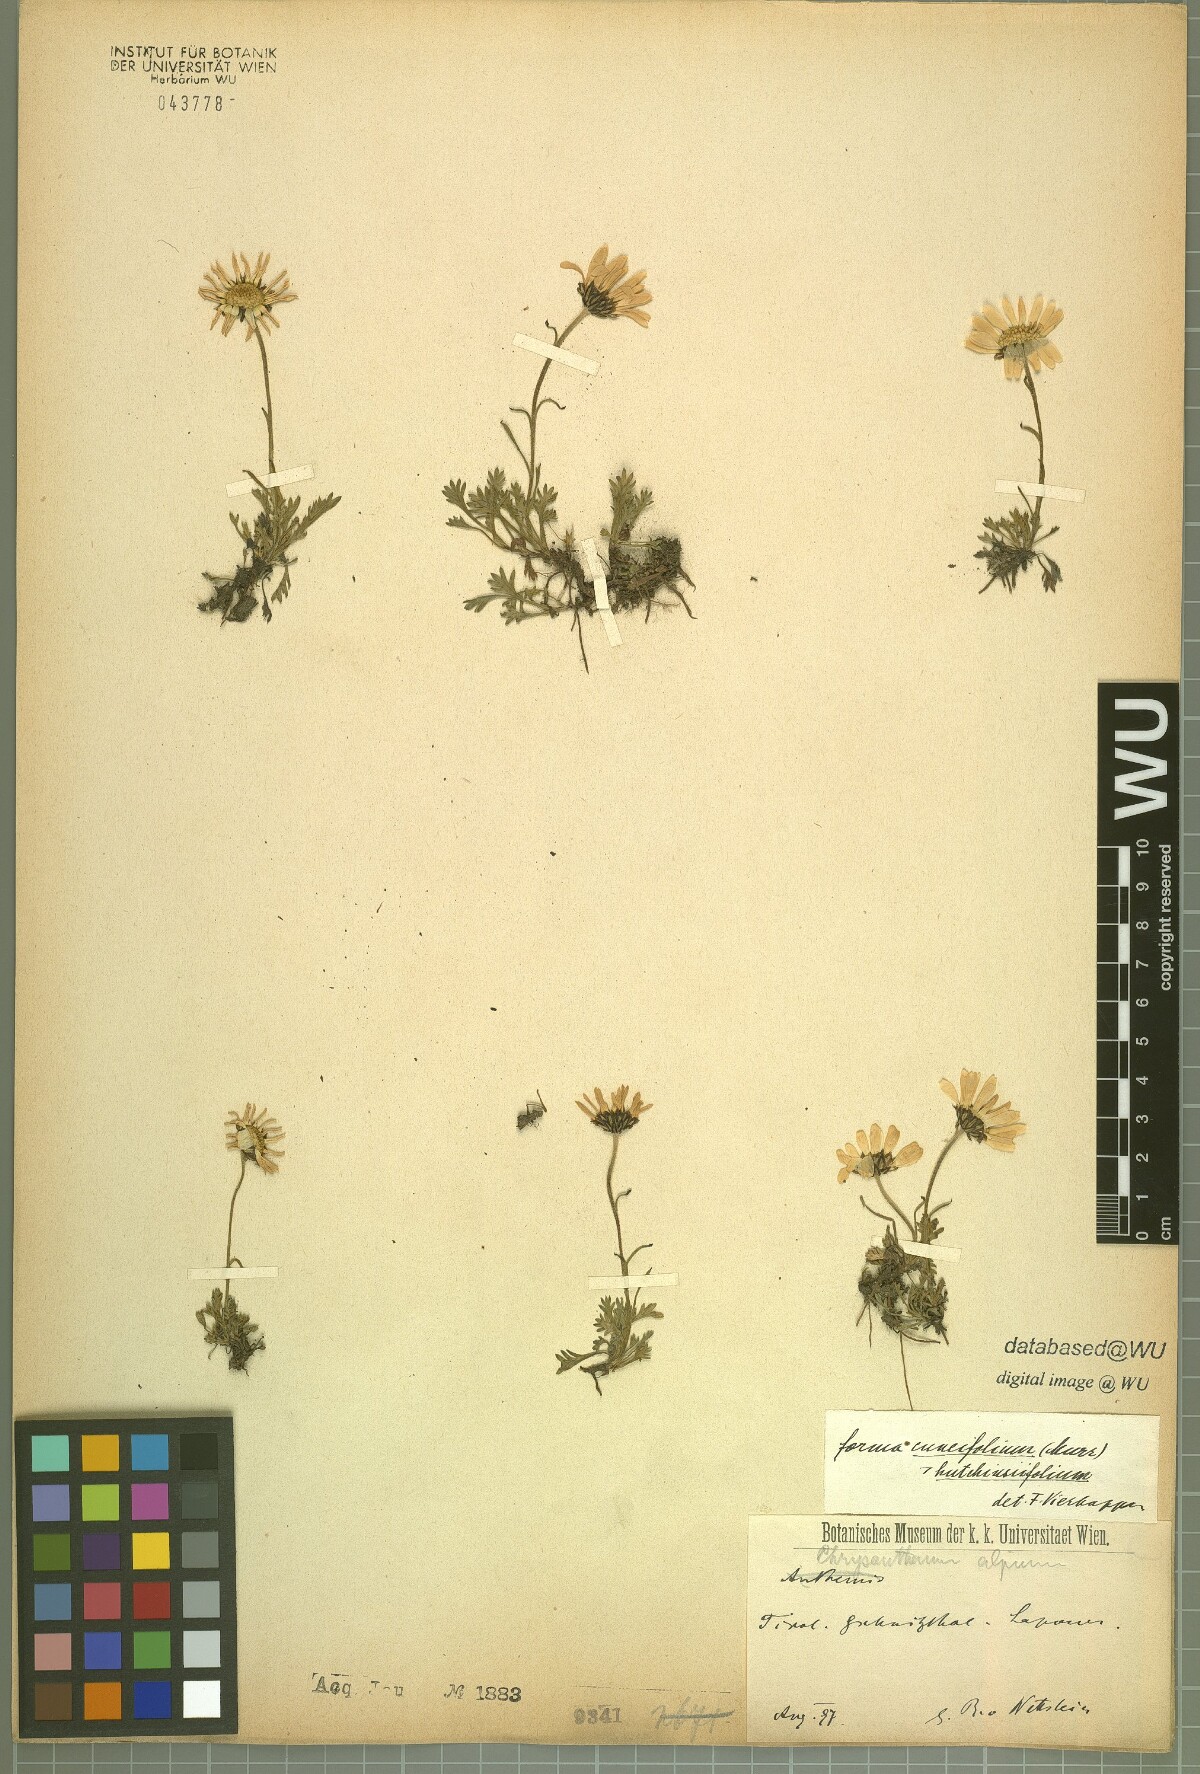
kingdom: Plantae
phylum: Tracheophyta
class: Magnoliopsida
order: Asterales
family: Asteraceae
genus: Leucanthemopsis
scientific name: Leucanthemopsis alpina
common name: Alpine moon daisy
